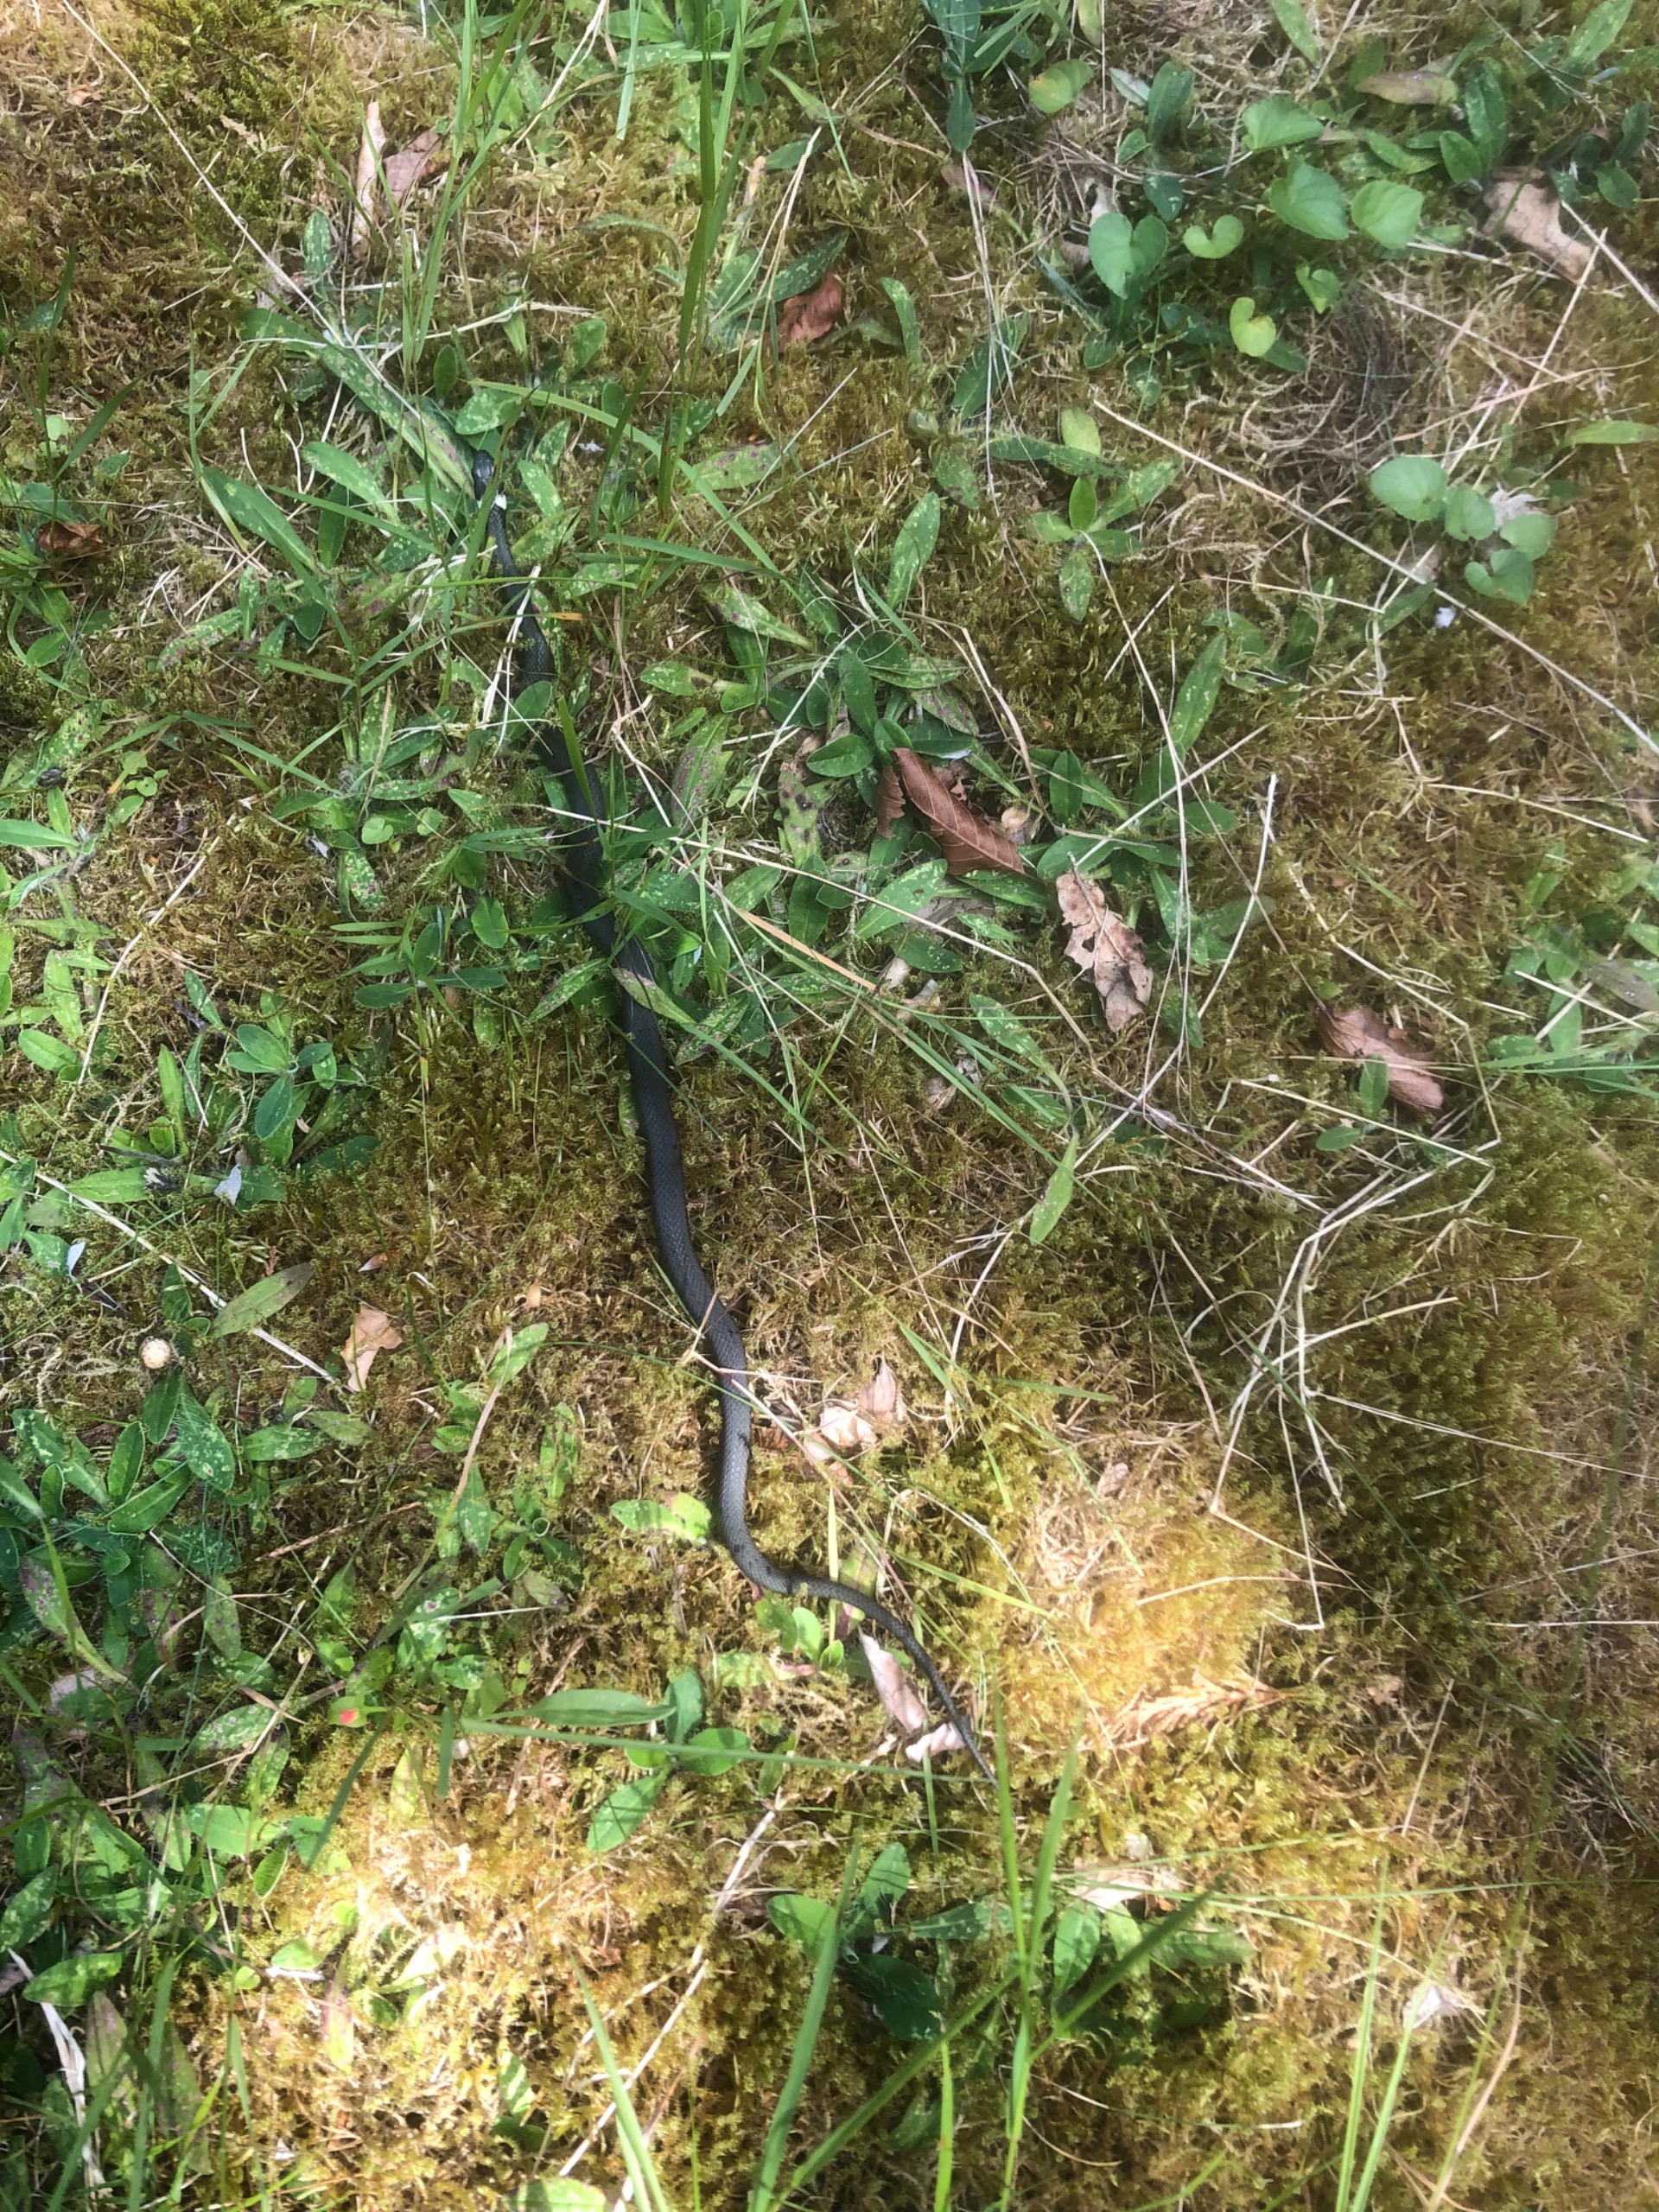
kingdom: Animalia
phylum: Chordata
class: Squamata
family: Colubridae
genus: Natrix
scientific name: Natrix natrix
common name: Snog
